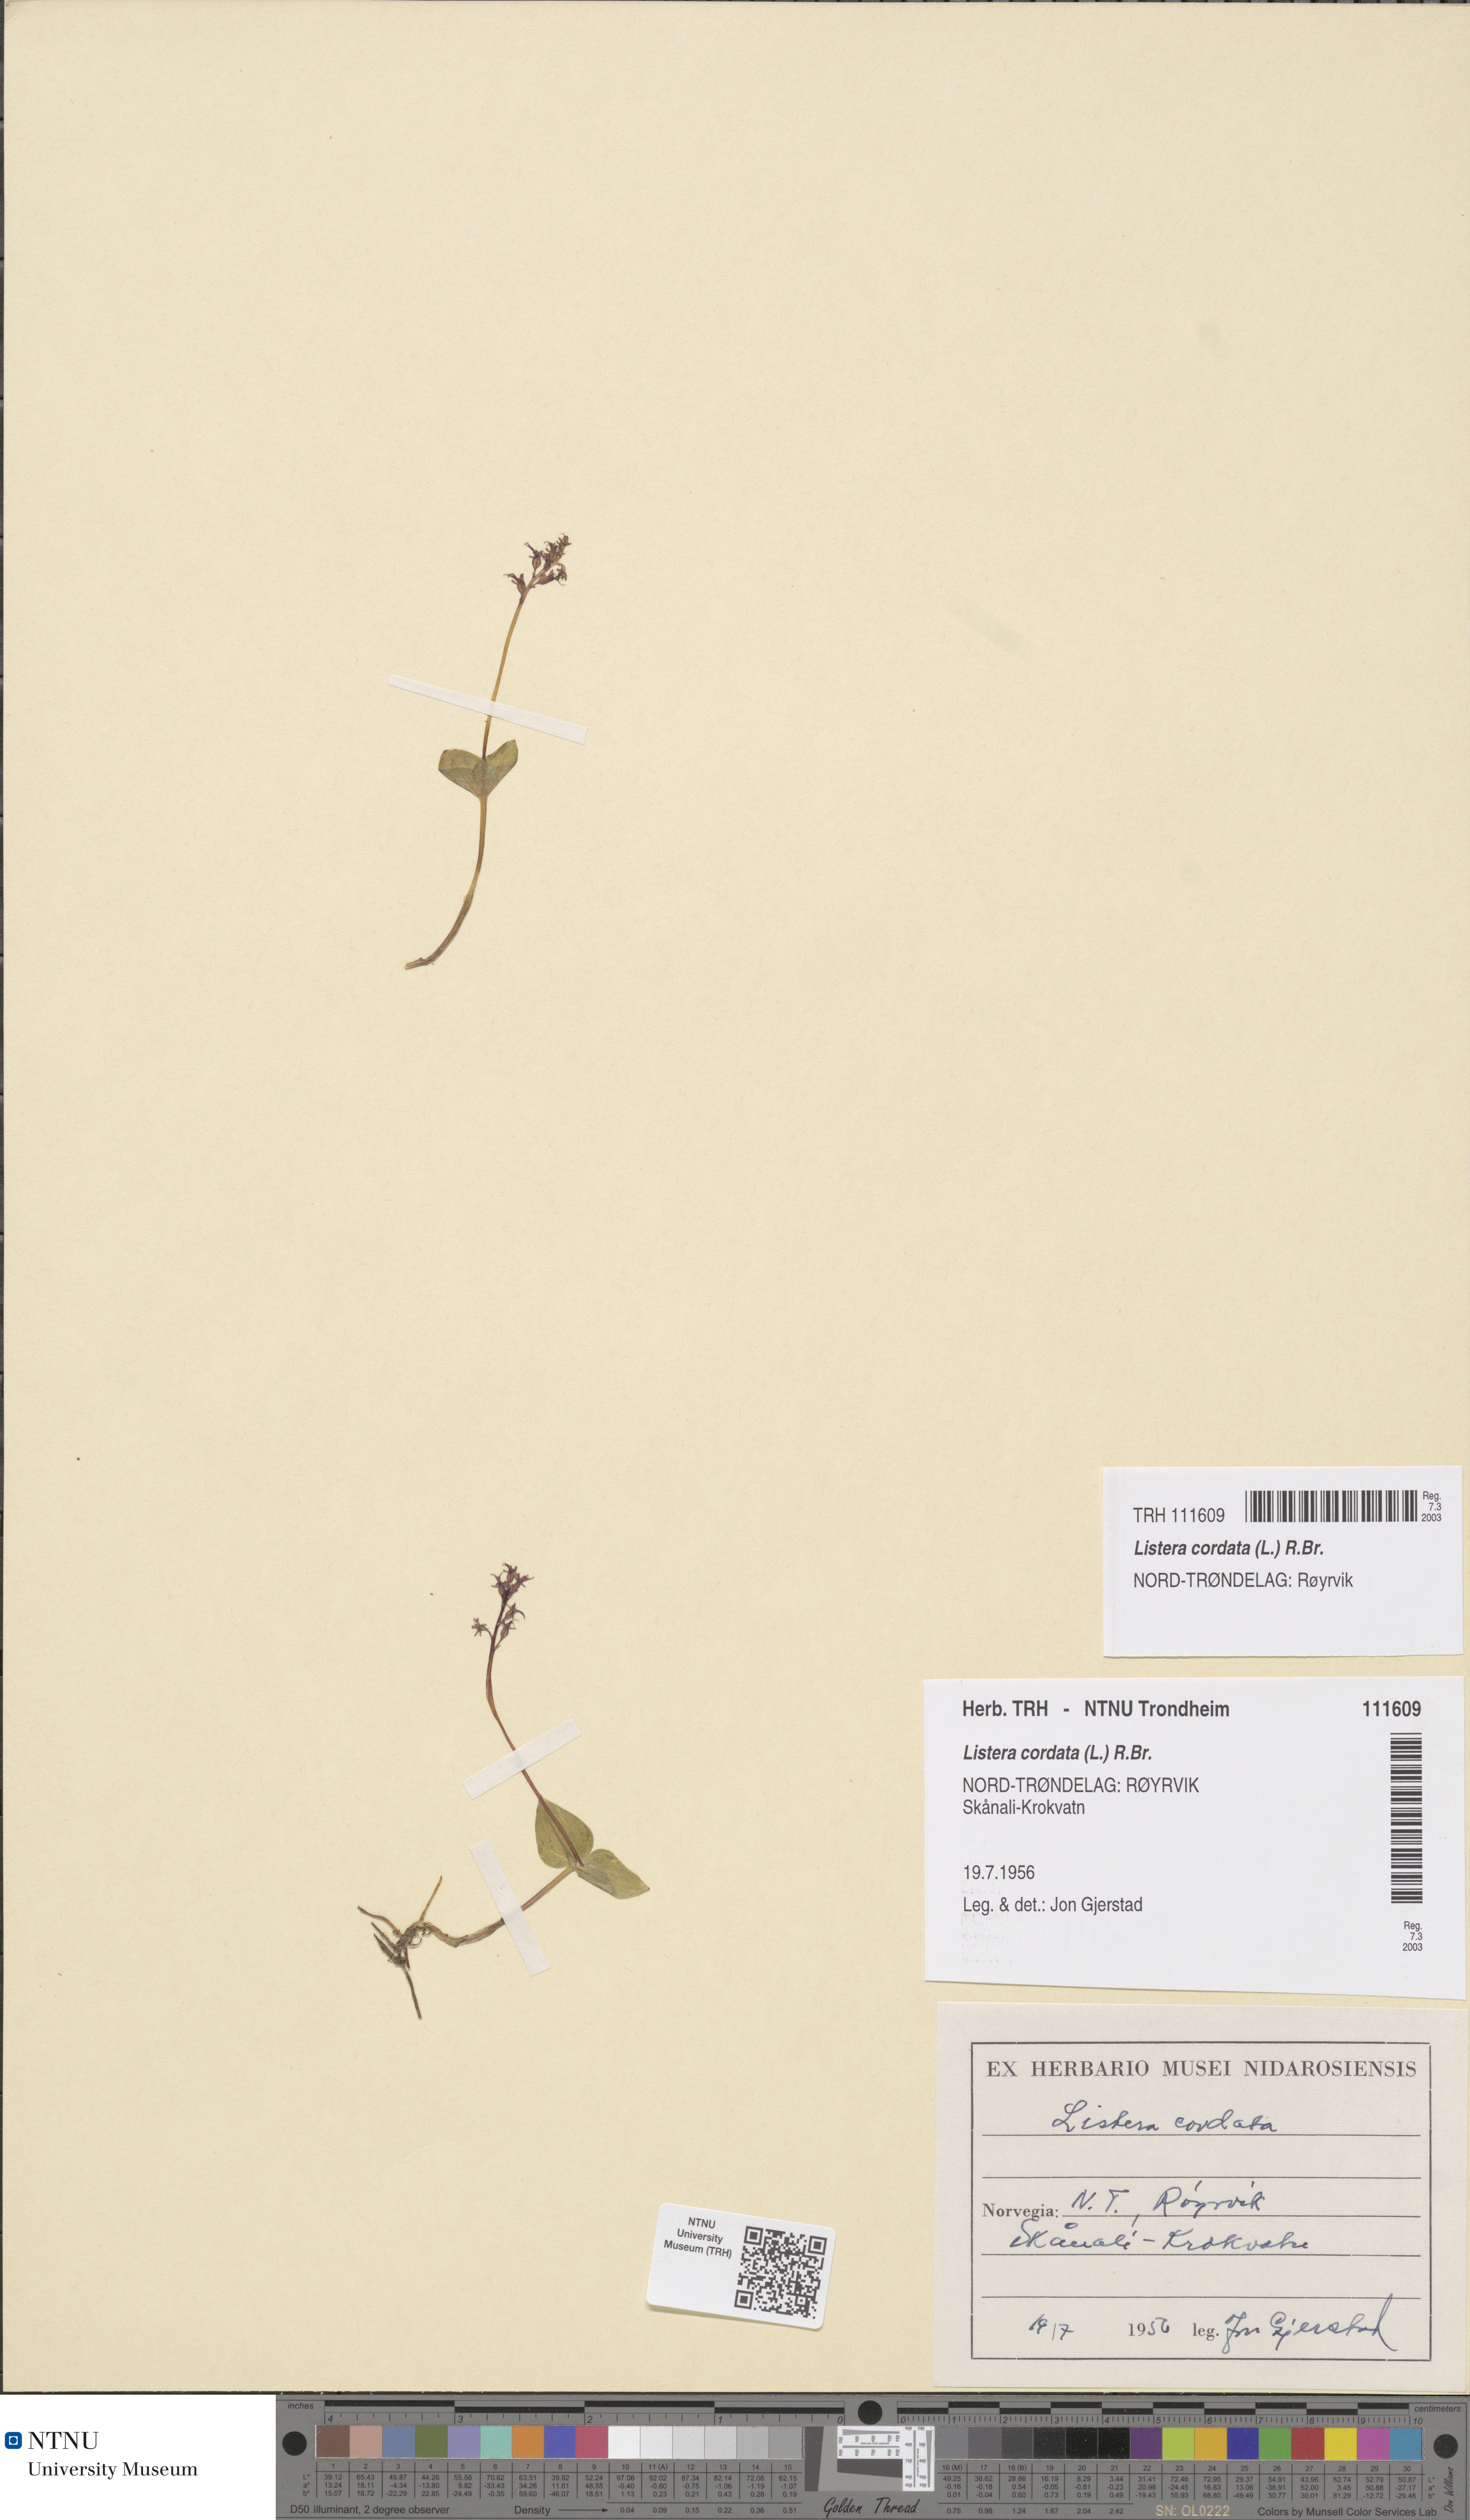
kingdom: Plantae
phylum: Tracheophyta
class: Liliopsida
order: Asparagales
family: Orchidaceae
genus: Neottia
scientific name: Neottia cordata
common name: Lesser twayblade
